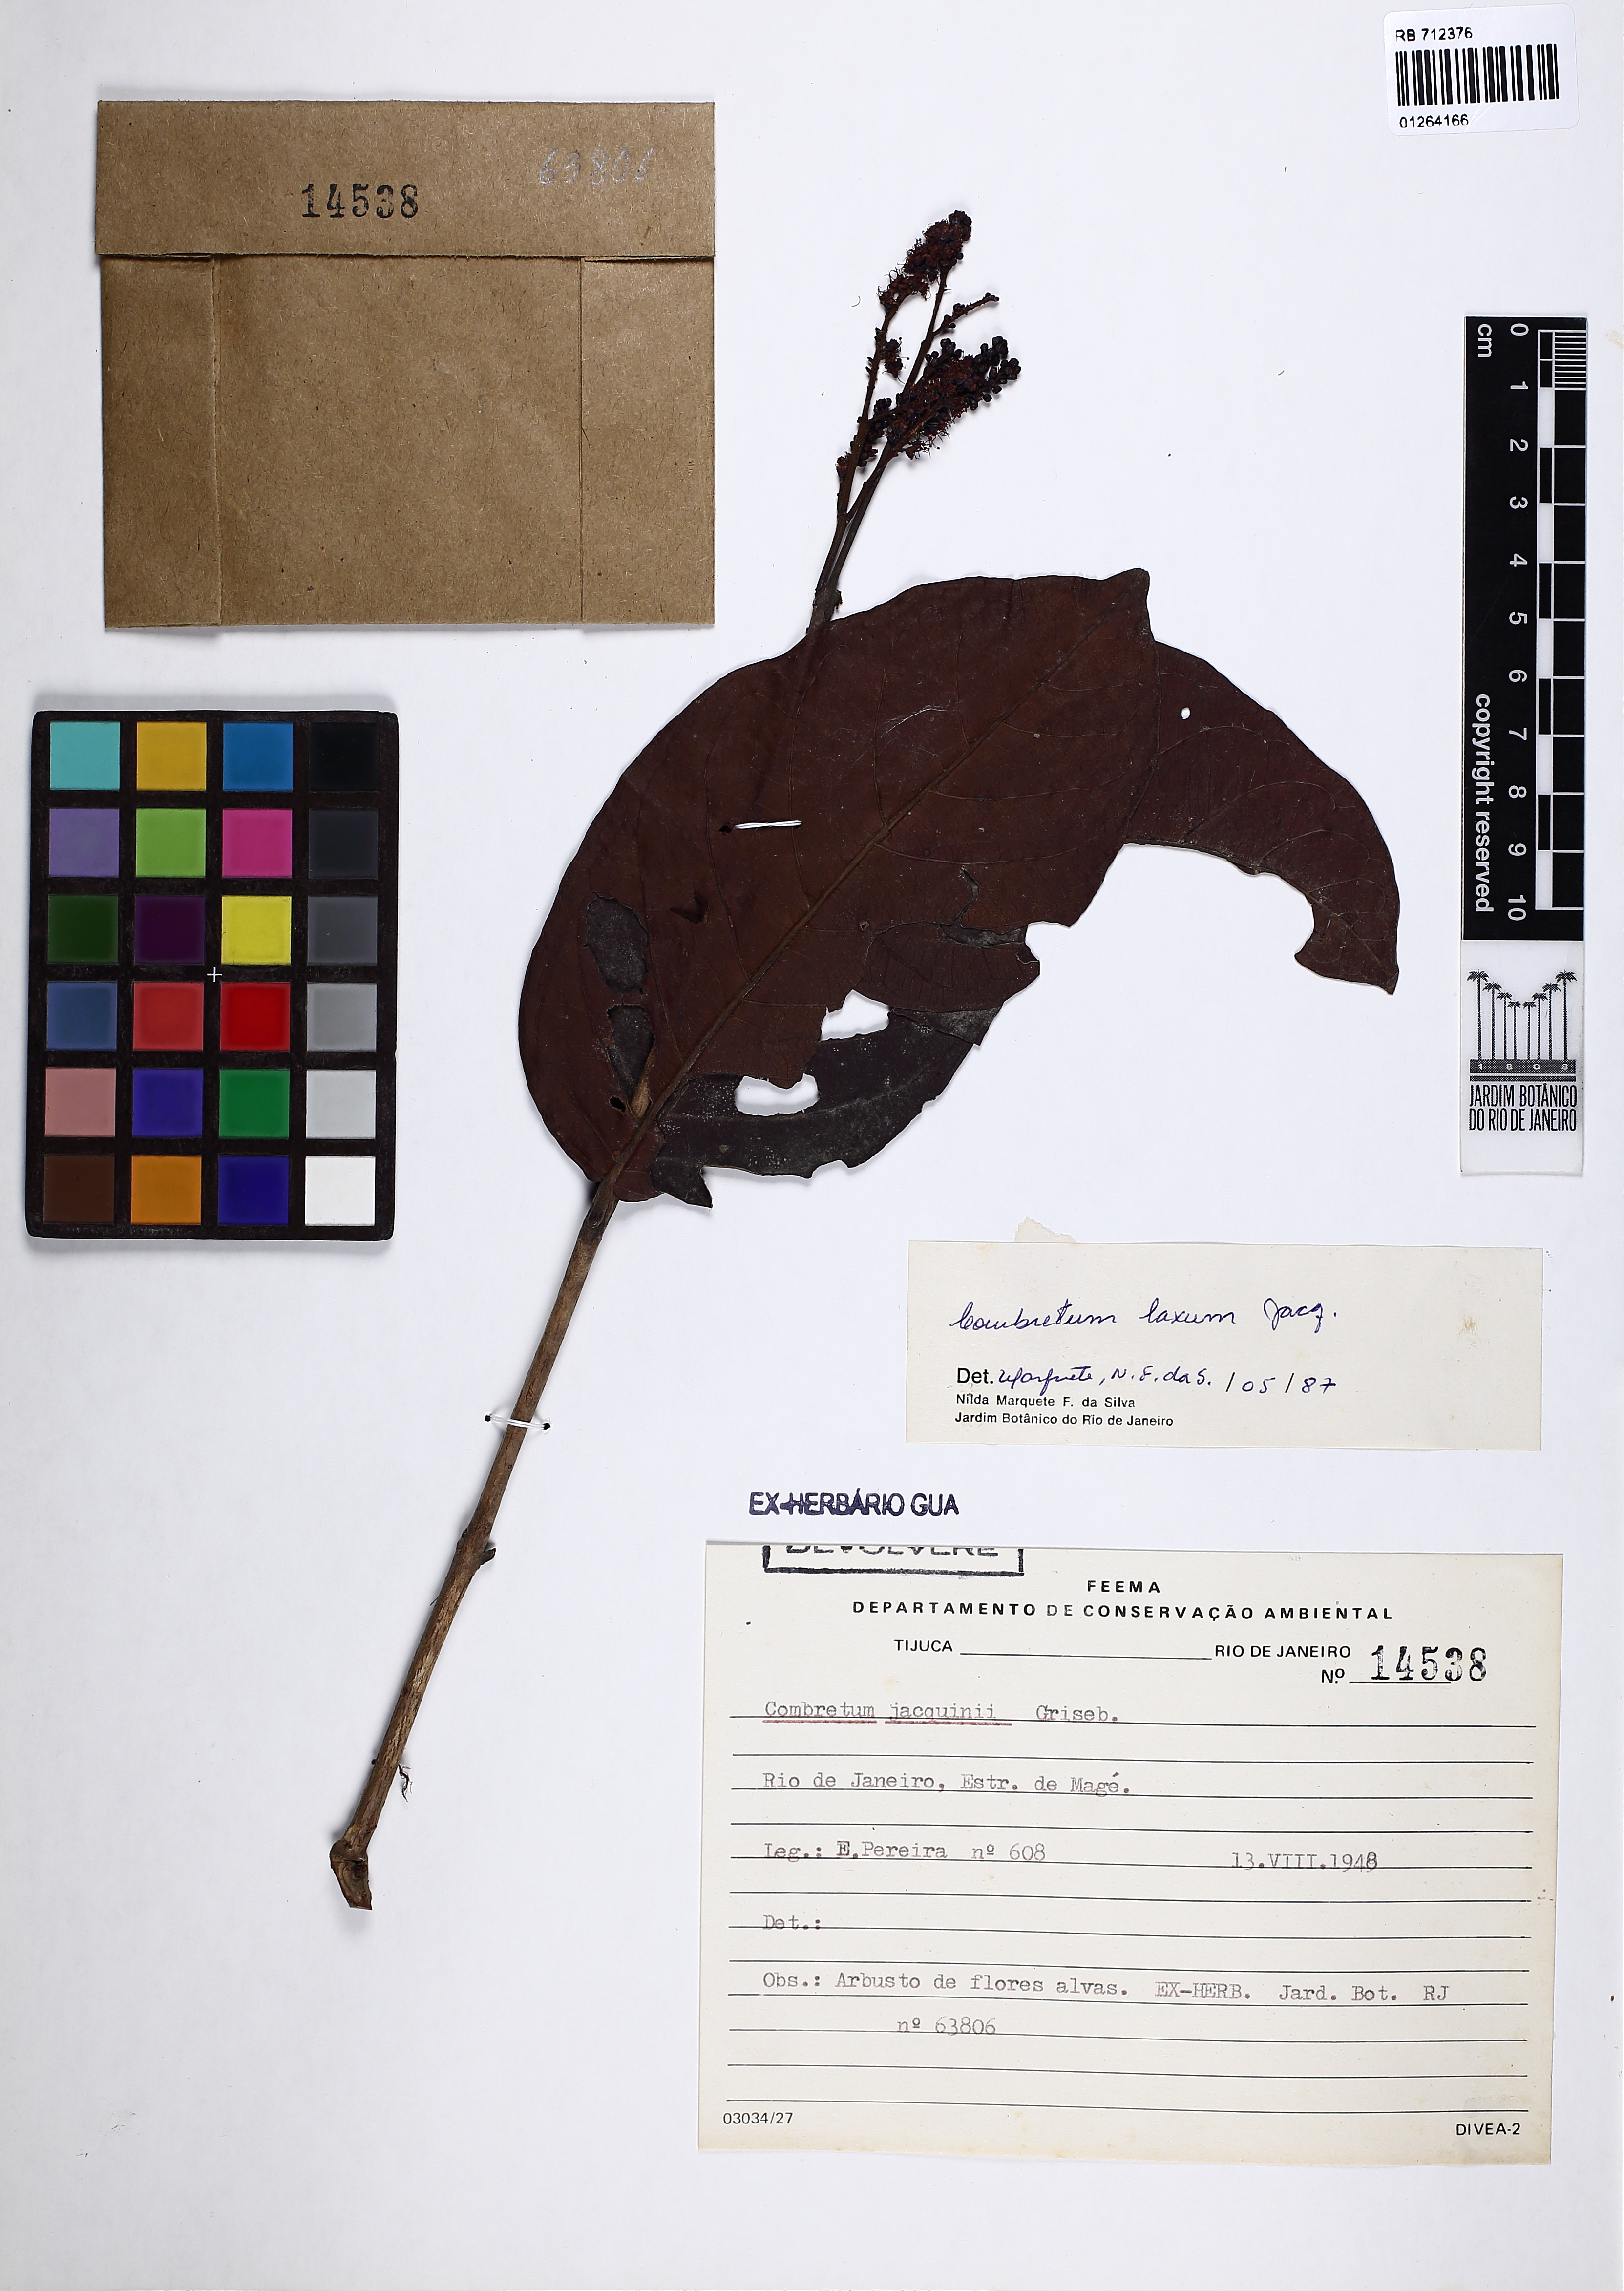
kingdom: Plantae
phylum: Tracheophyta
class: Magnoliopsida
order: Myrtales
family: Combretaceae
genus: Combretum
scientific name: Combretum laxum
